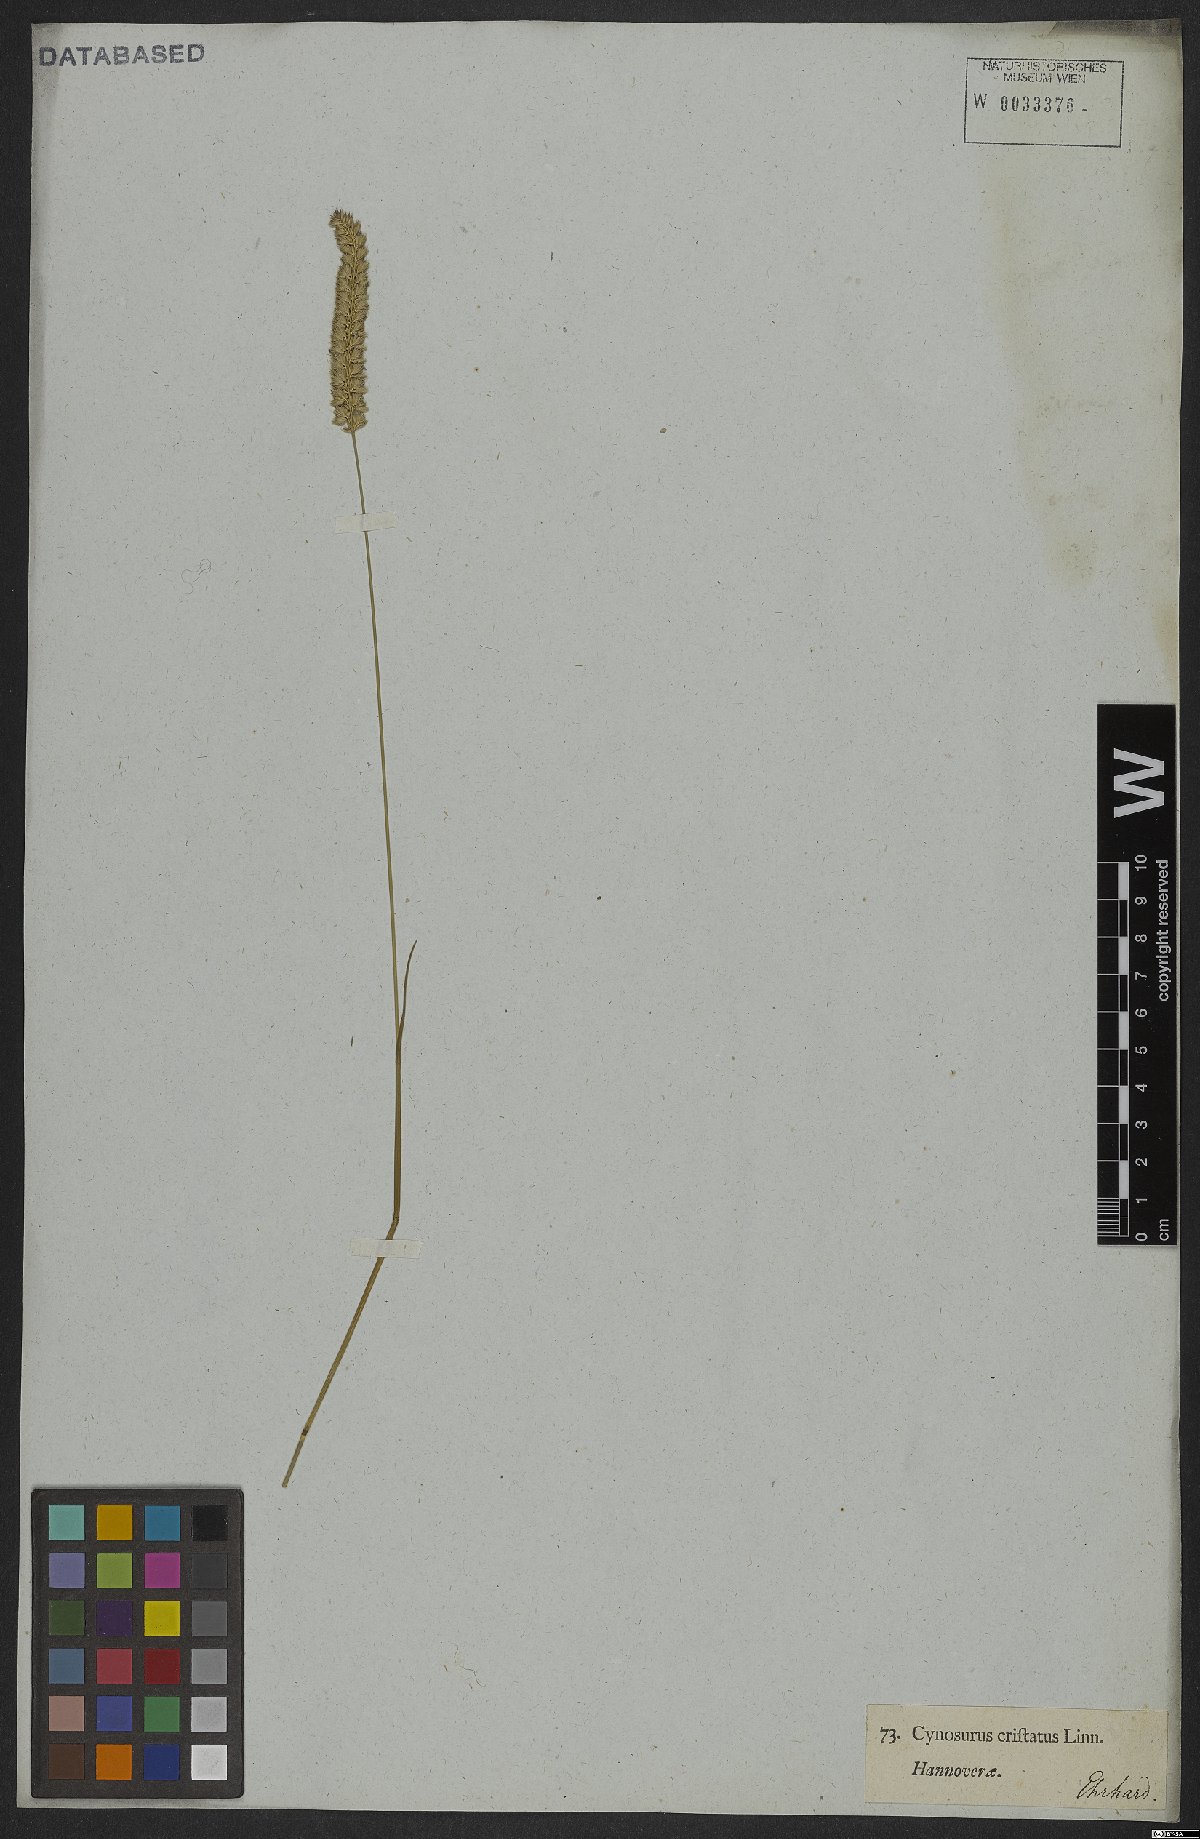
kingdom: Plantae
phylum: Tracheophyta
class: Liliopsida
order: Poales
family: Poaceae
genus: Cynosurus
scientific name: Cynosurus cristatus
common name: Crested dog's-tail
